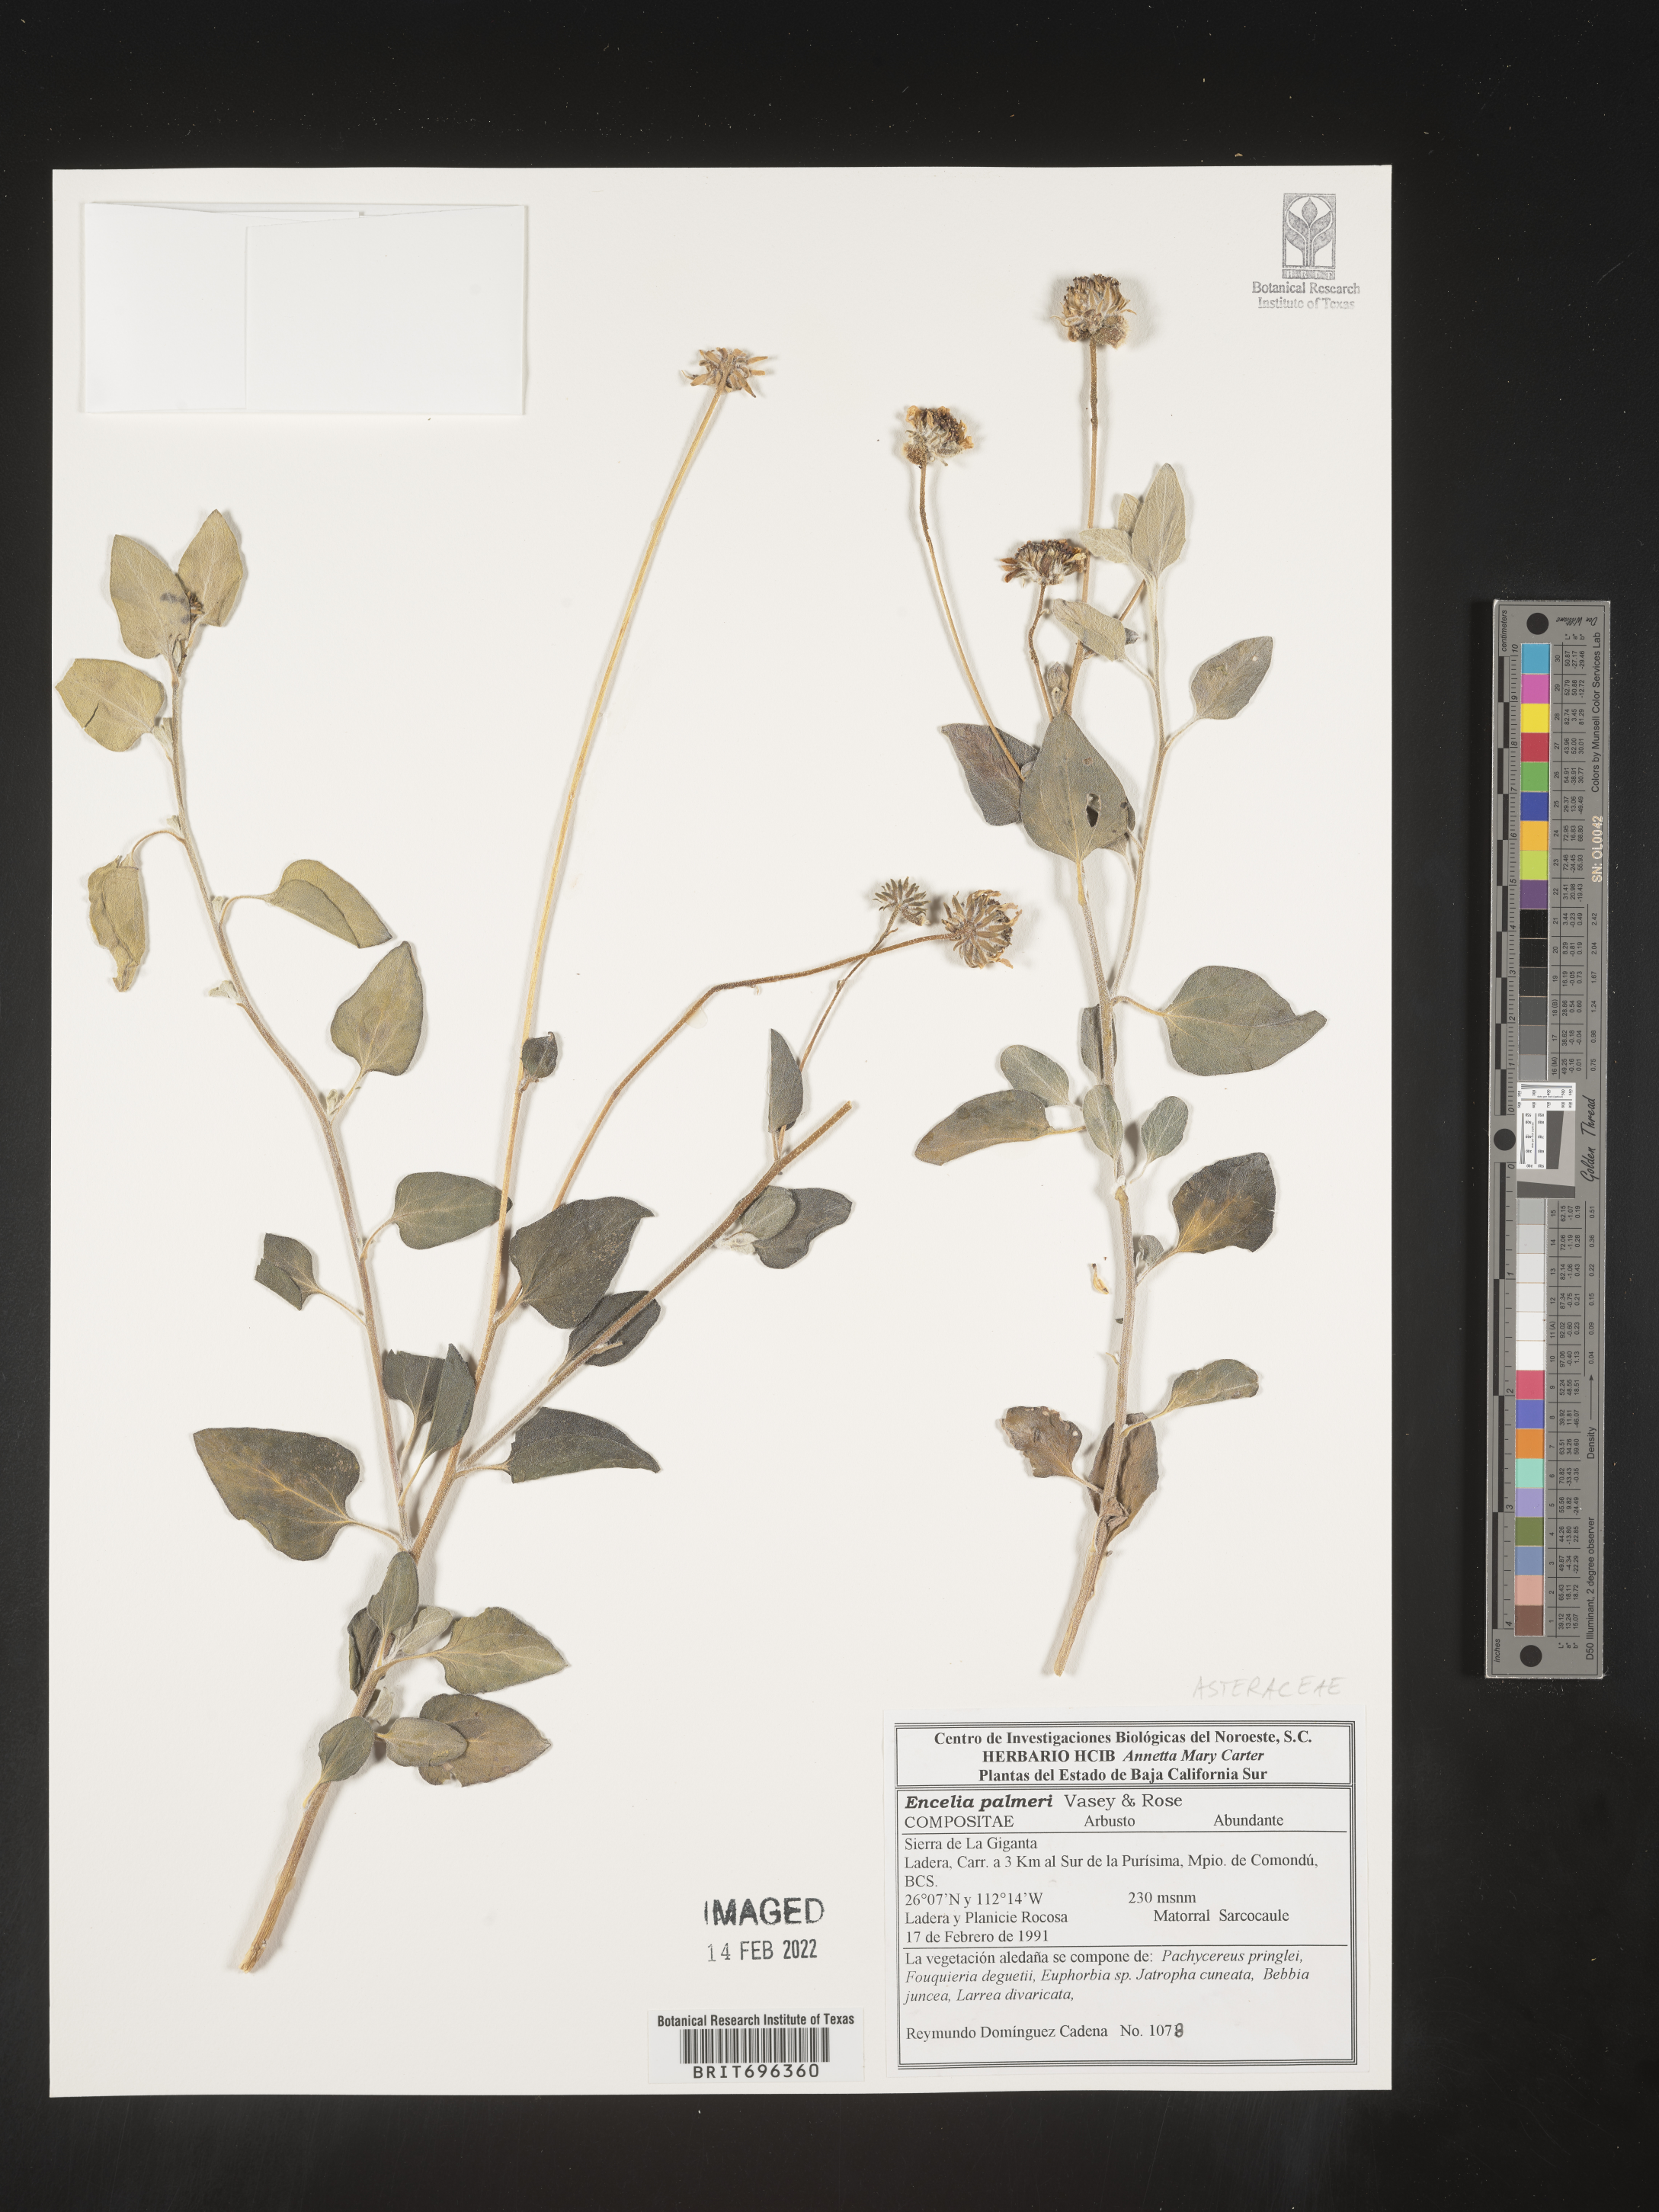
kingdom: Plantae
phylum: Tracheophyta
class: Magnoliopsida
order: Asterales
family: Asteraceae
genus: Encelia
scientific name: Encelia
